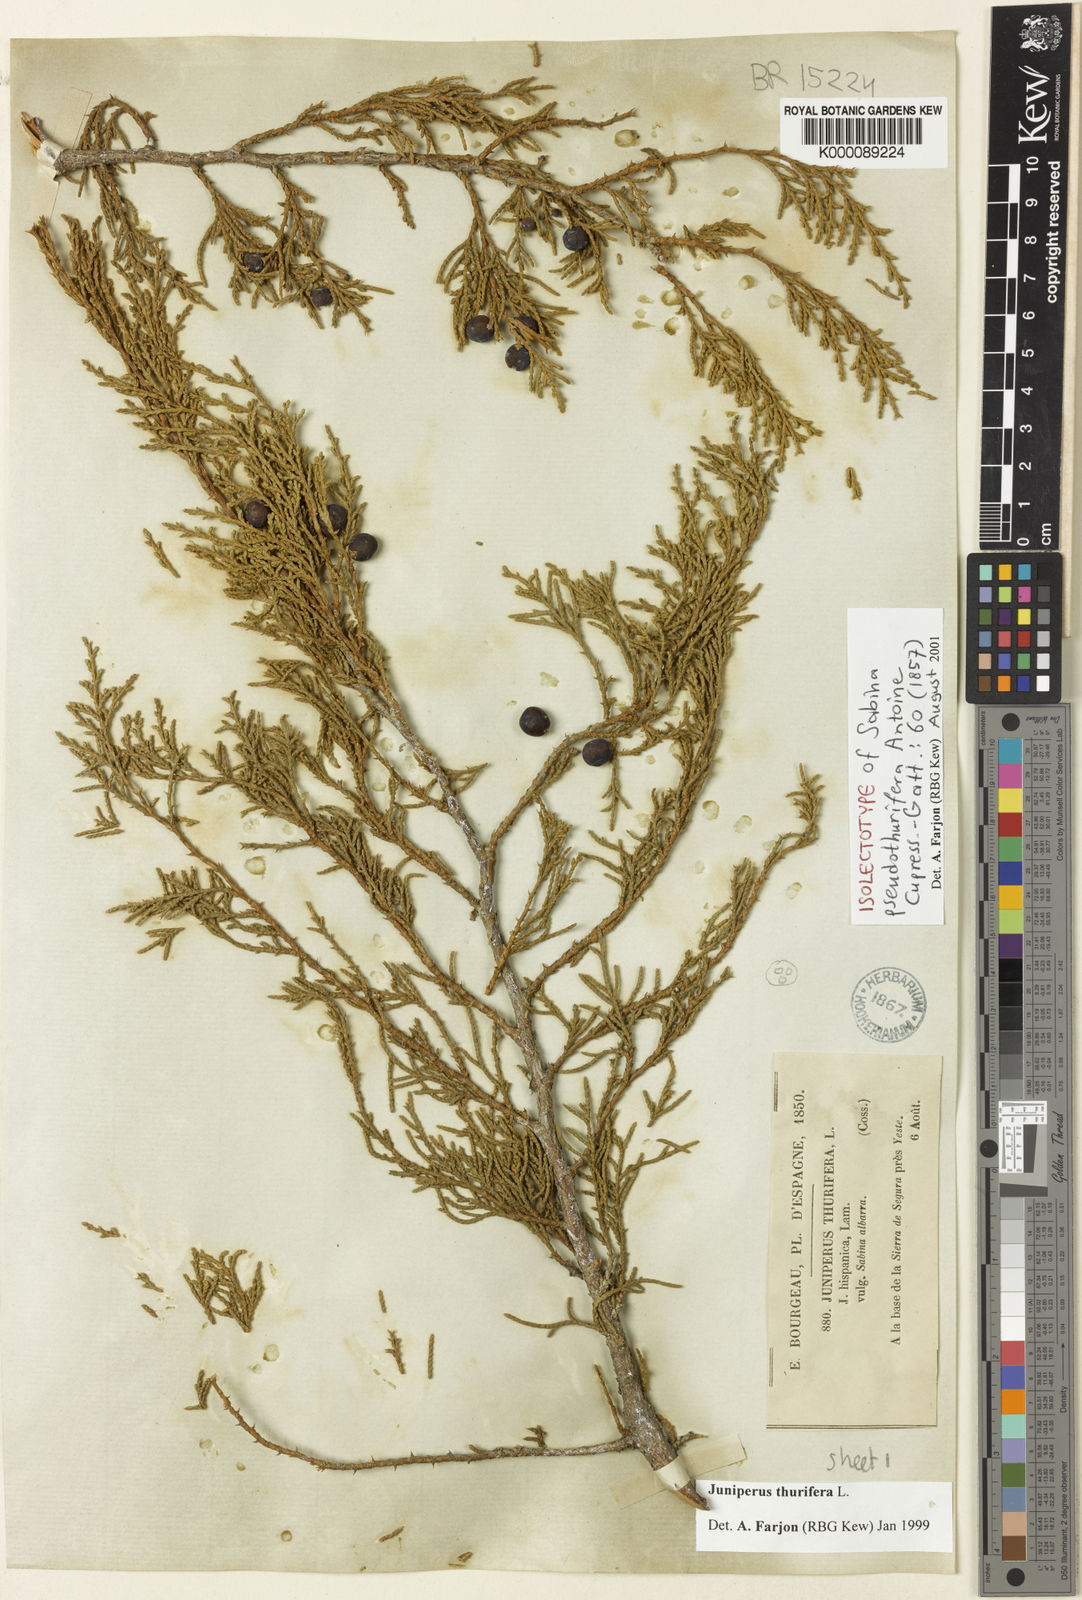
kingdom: Plantae
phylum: Tracheophyta
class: Pinopsida
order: Pinales
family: Cupressaceae
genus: Juniperus
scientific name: Juniperus thurifera
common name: Incense juniper
